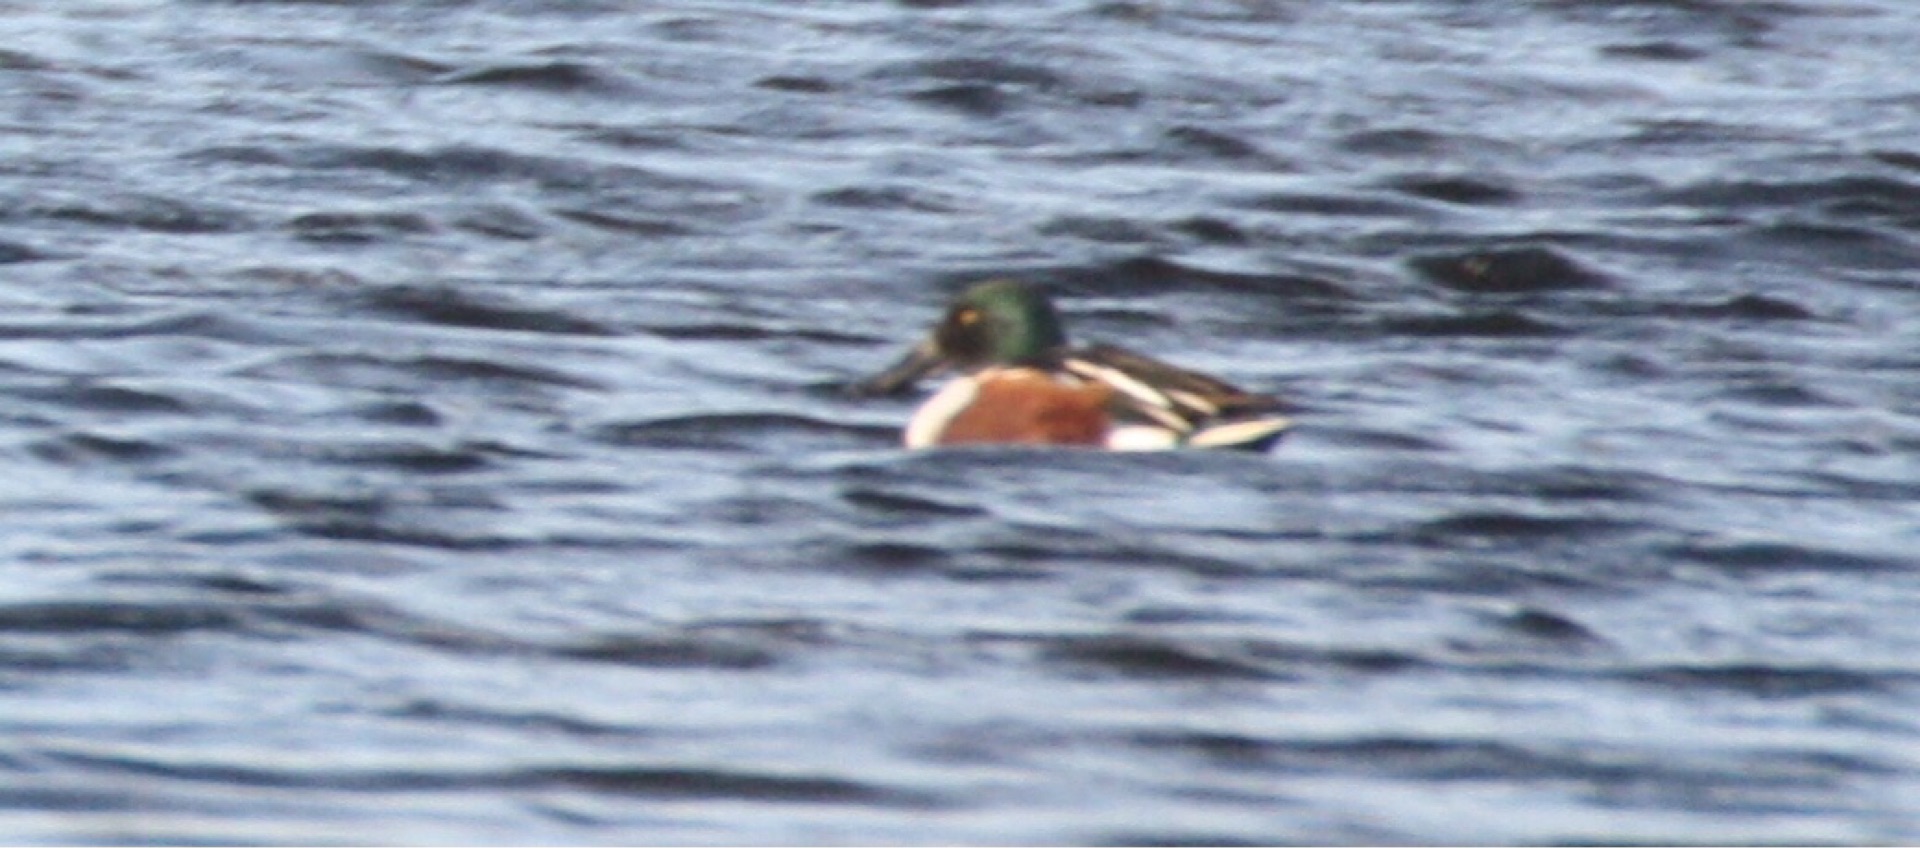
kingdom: Animalia
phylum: Chordata
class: Aves
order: Anseriformes
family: Anatidae
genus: Spatula
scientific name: Spatula clypeata
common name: Skeand
